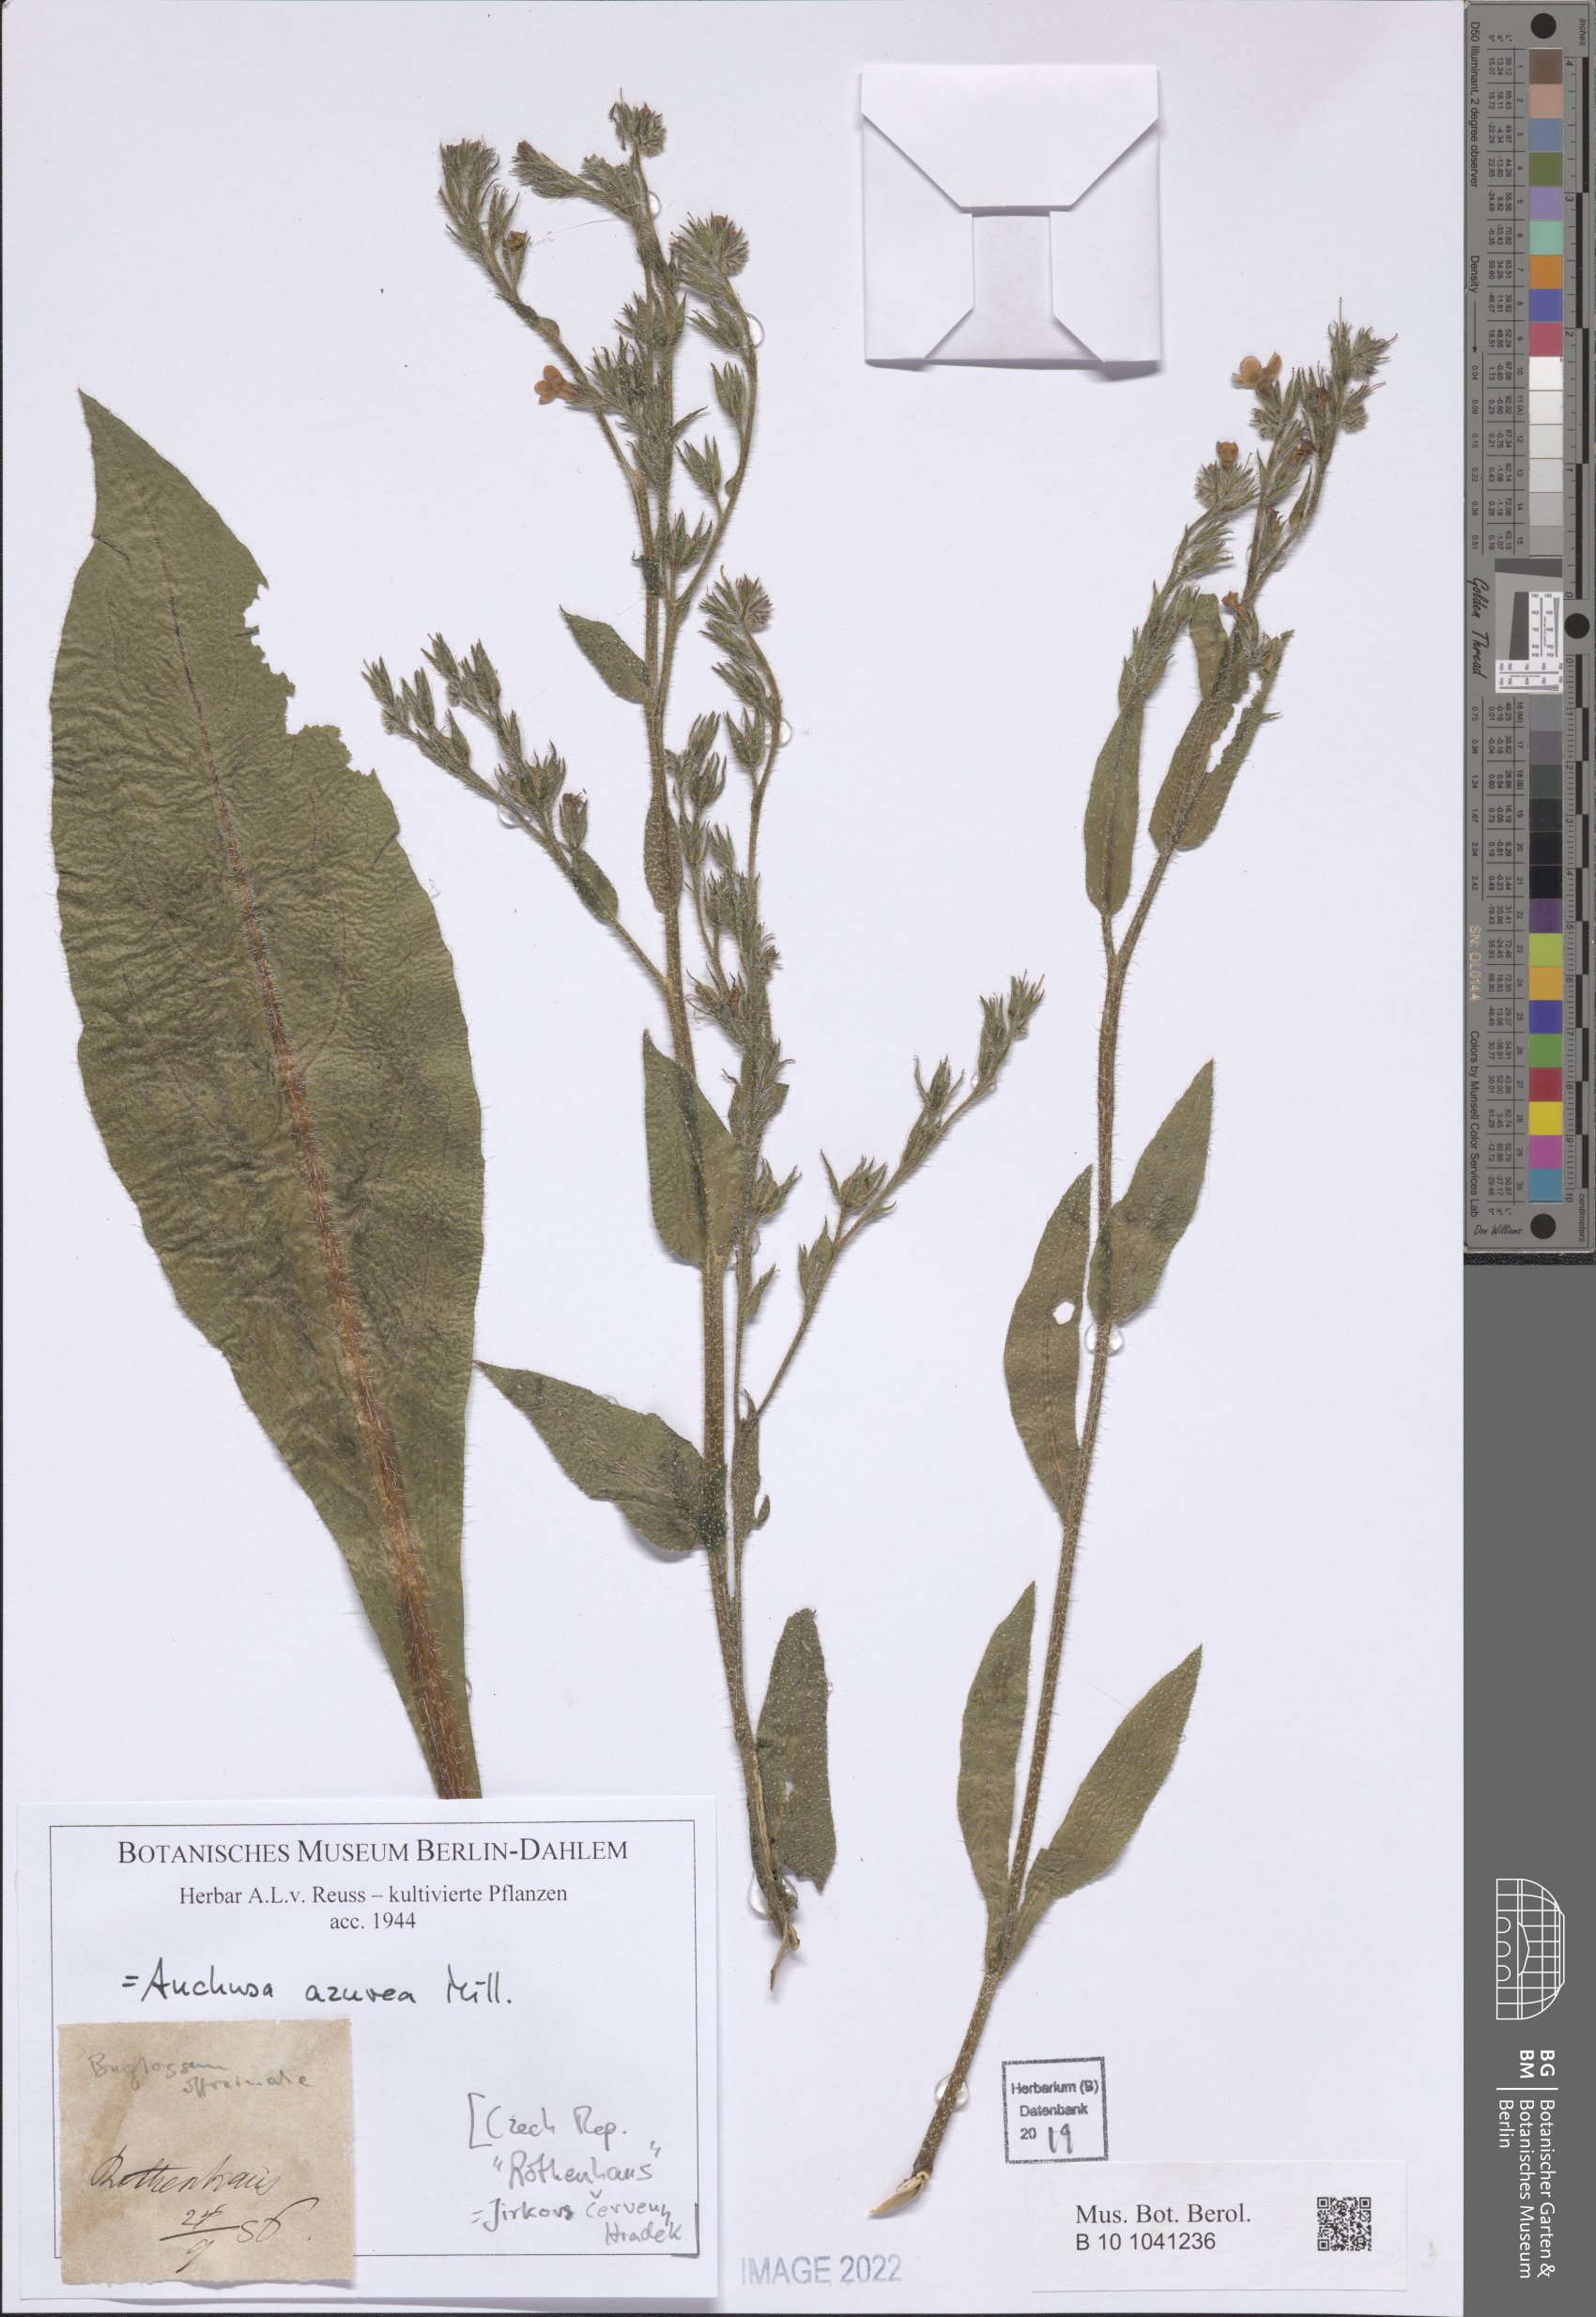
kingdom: Plantae
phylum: Tracheophyta
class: Magnoliopsida
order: Boraginales
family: Boraginaceae
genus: Anchusa
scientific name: Anchusa azurea
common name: Garden anchusa
